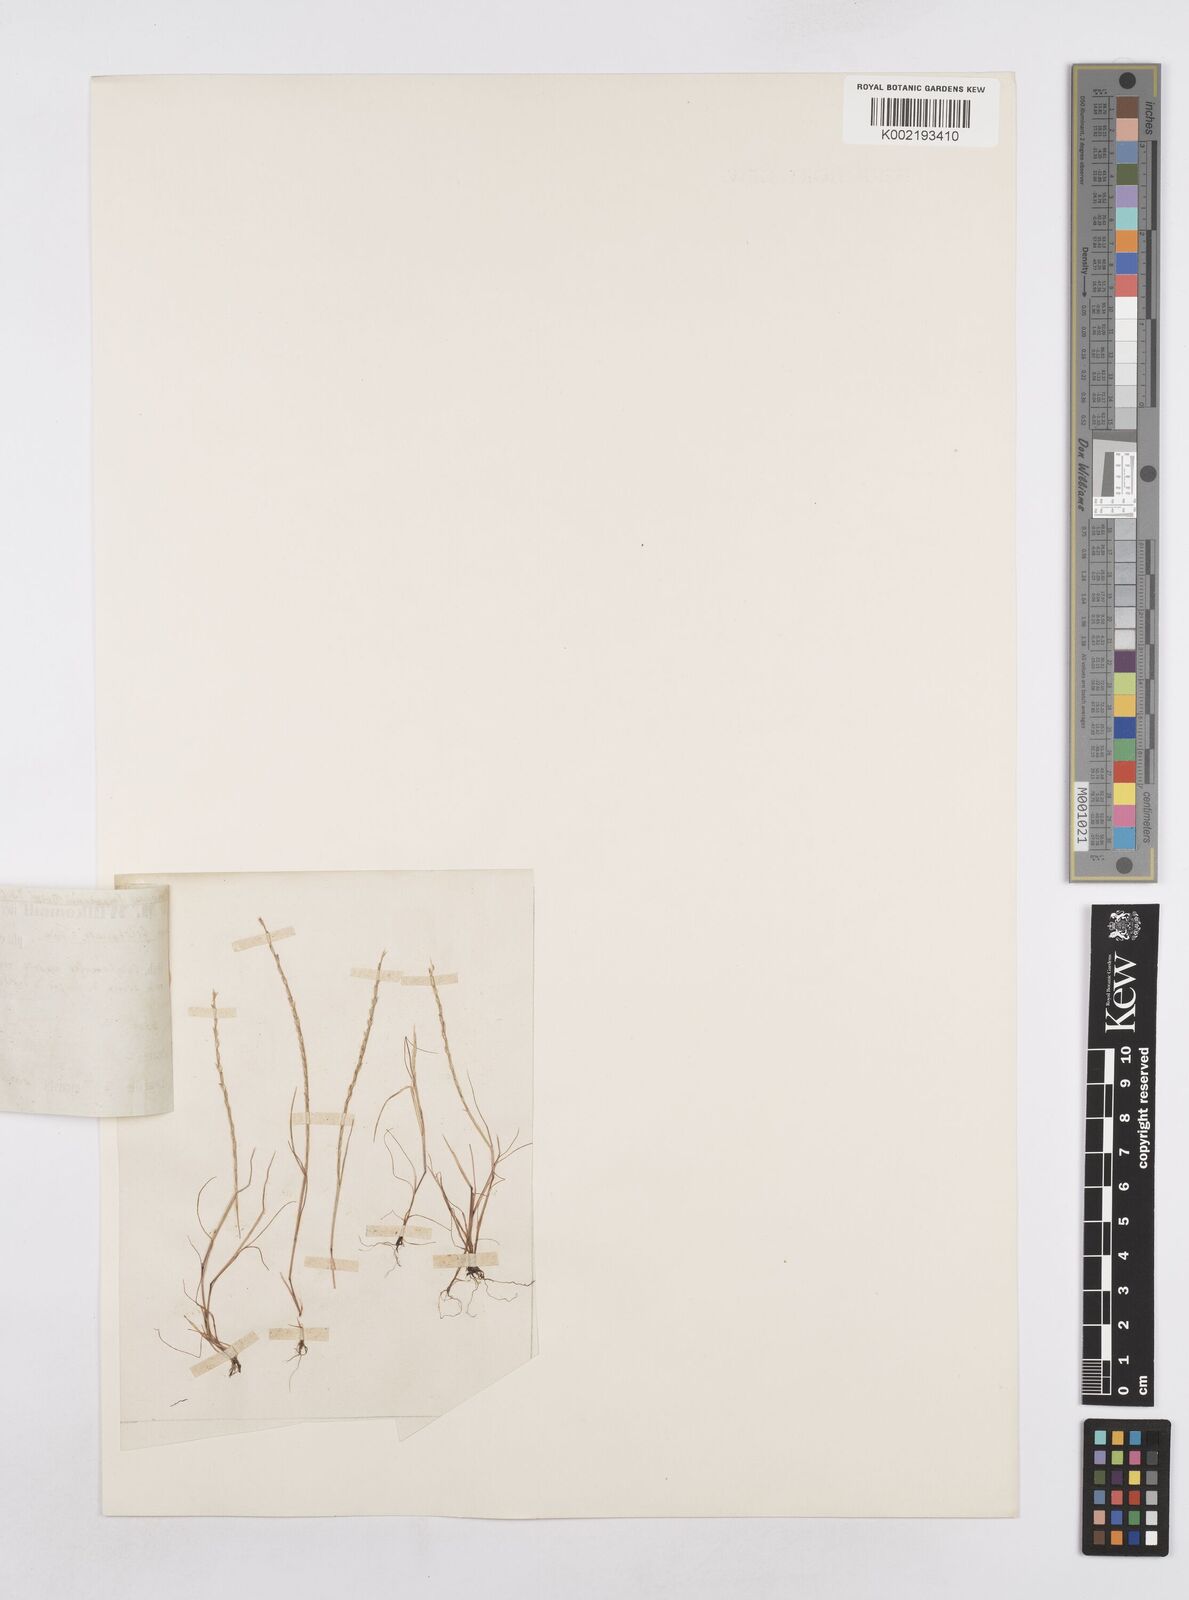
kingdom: Plantae
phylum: Tracheophyta
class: Liliopsida
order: Poales
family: Poaceae
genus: Festuca
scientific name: Festuca salzmannii
